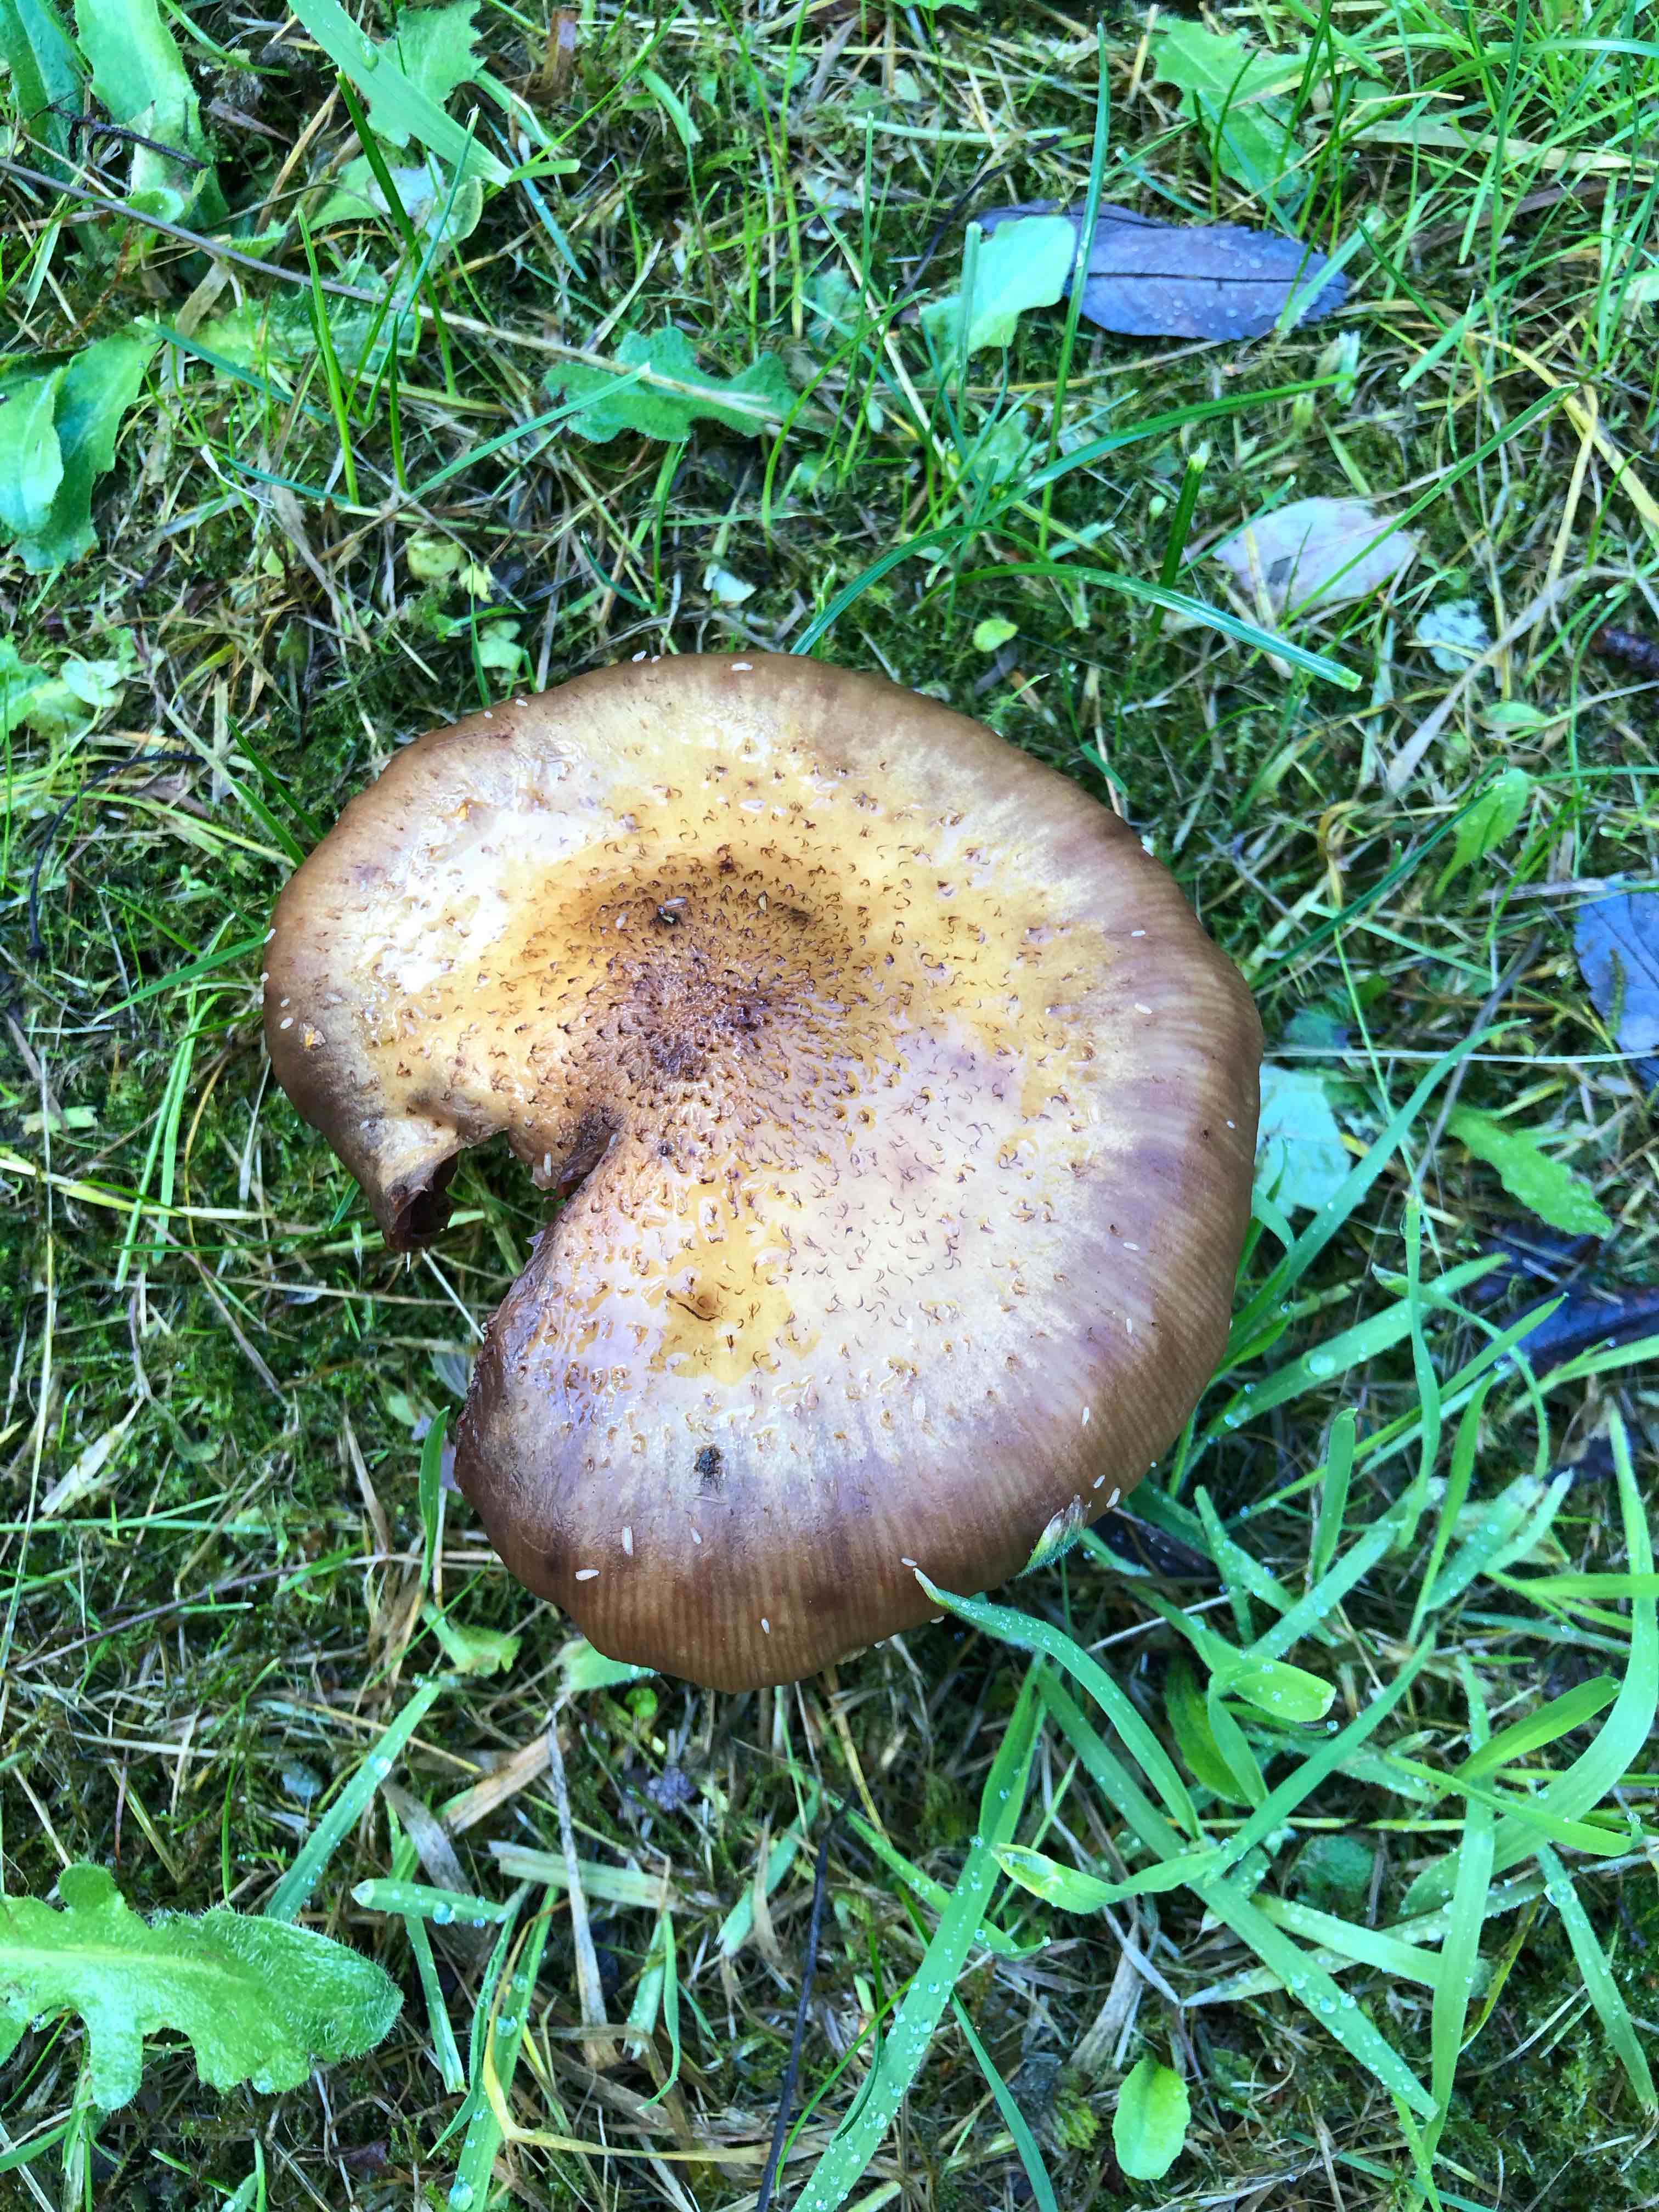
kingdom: Fungi
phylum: Basidiomycota
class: Agaricomycetes
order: Agaricales
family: Physalacriaceae
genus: Armillaria
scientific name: Armillaria lutea
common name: køllestokket honningsvamp
